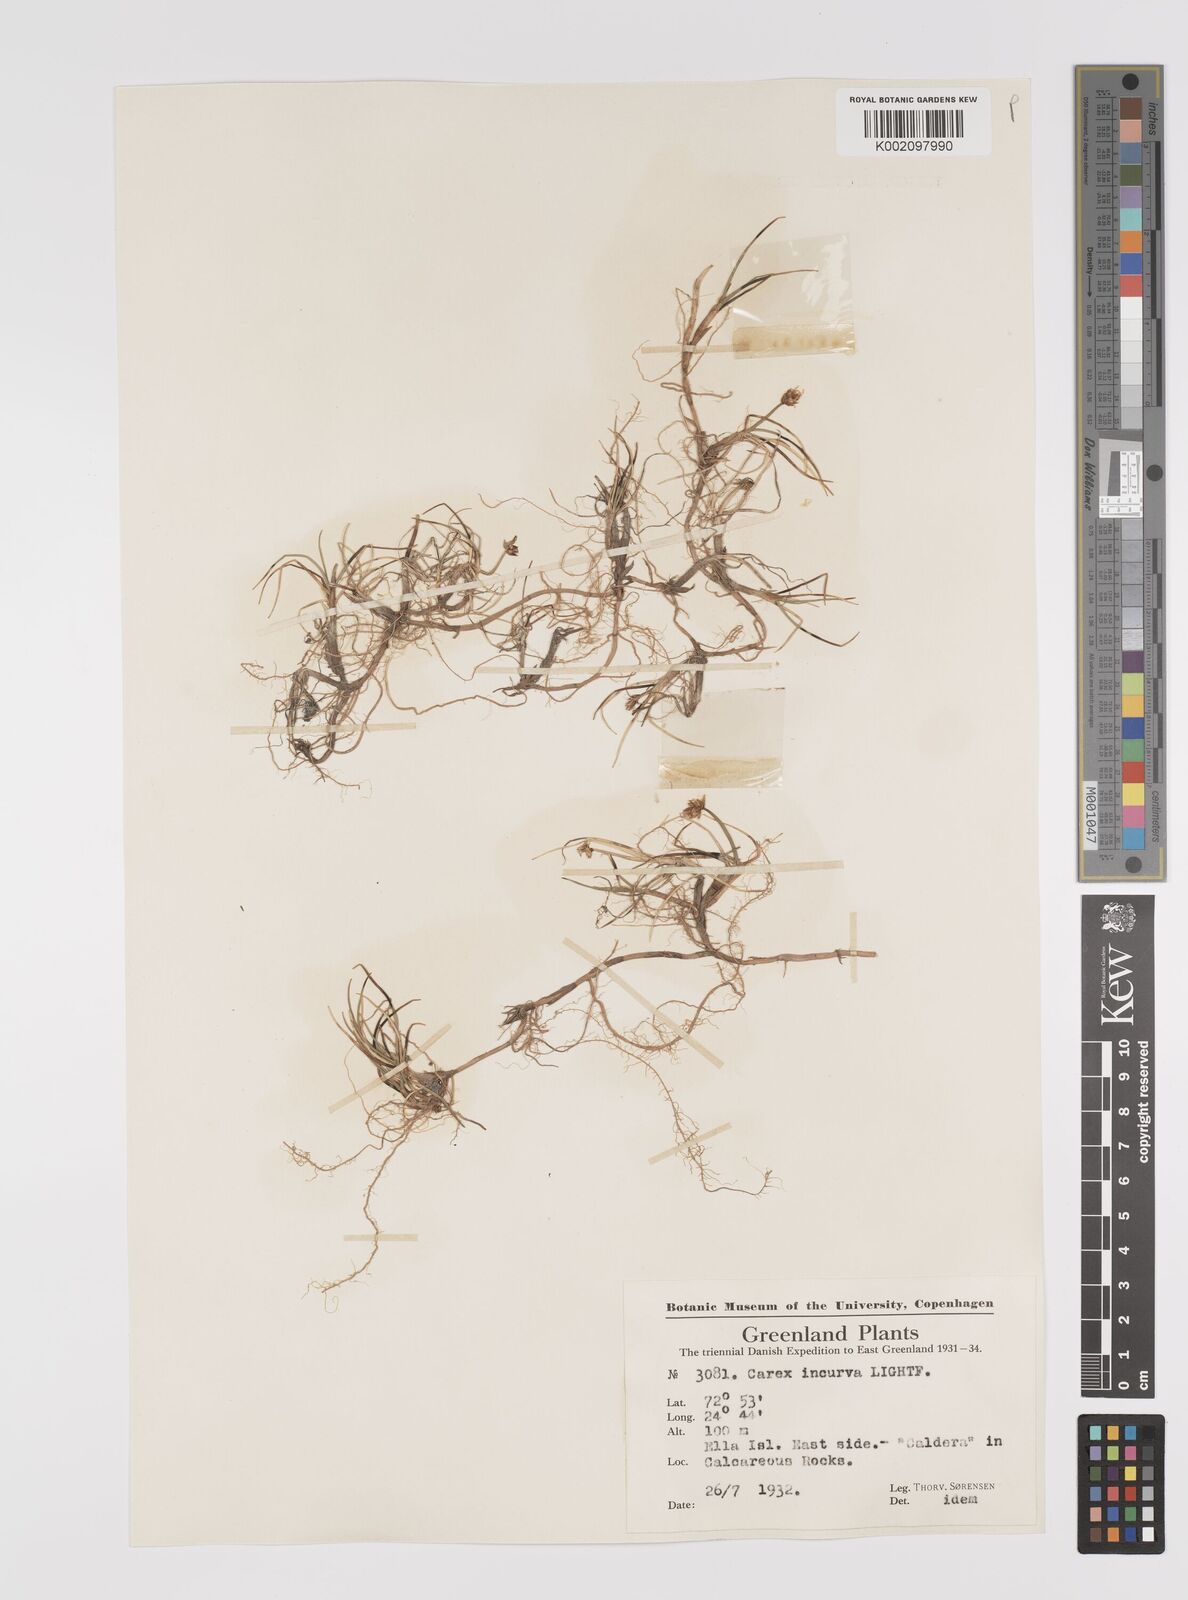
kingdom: Plantae
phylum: Tracheophyta
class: Liliopsida
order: Poales
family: Cyperaceae
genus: Carex
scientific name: Carex maritima
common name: Curved sedge
